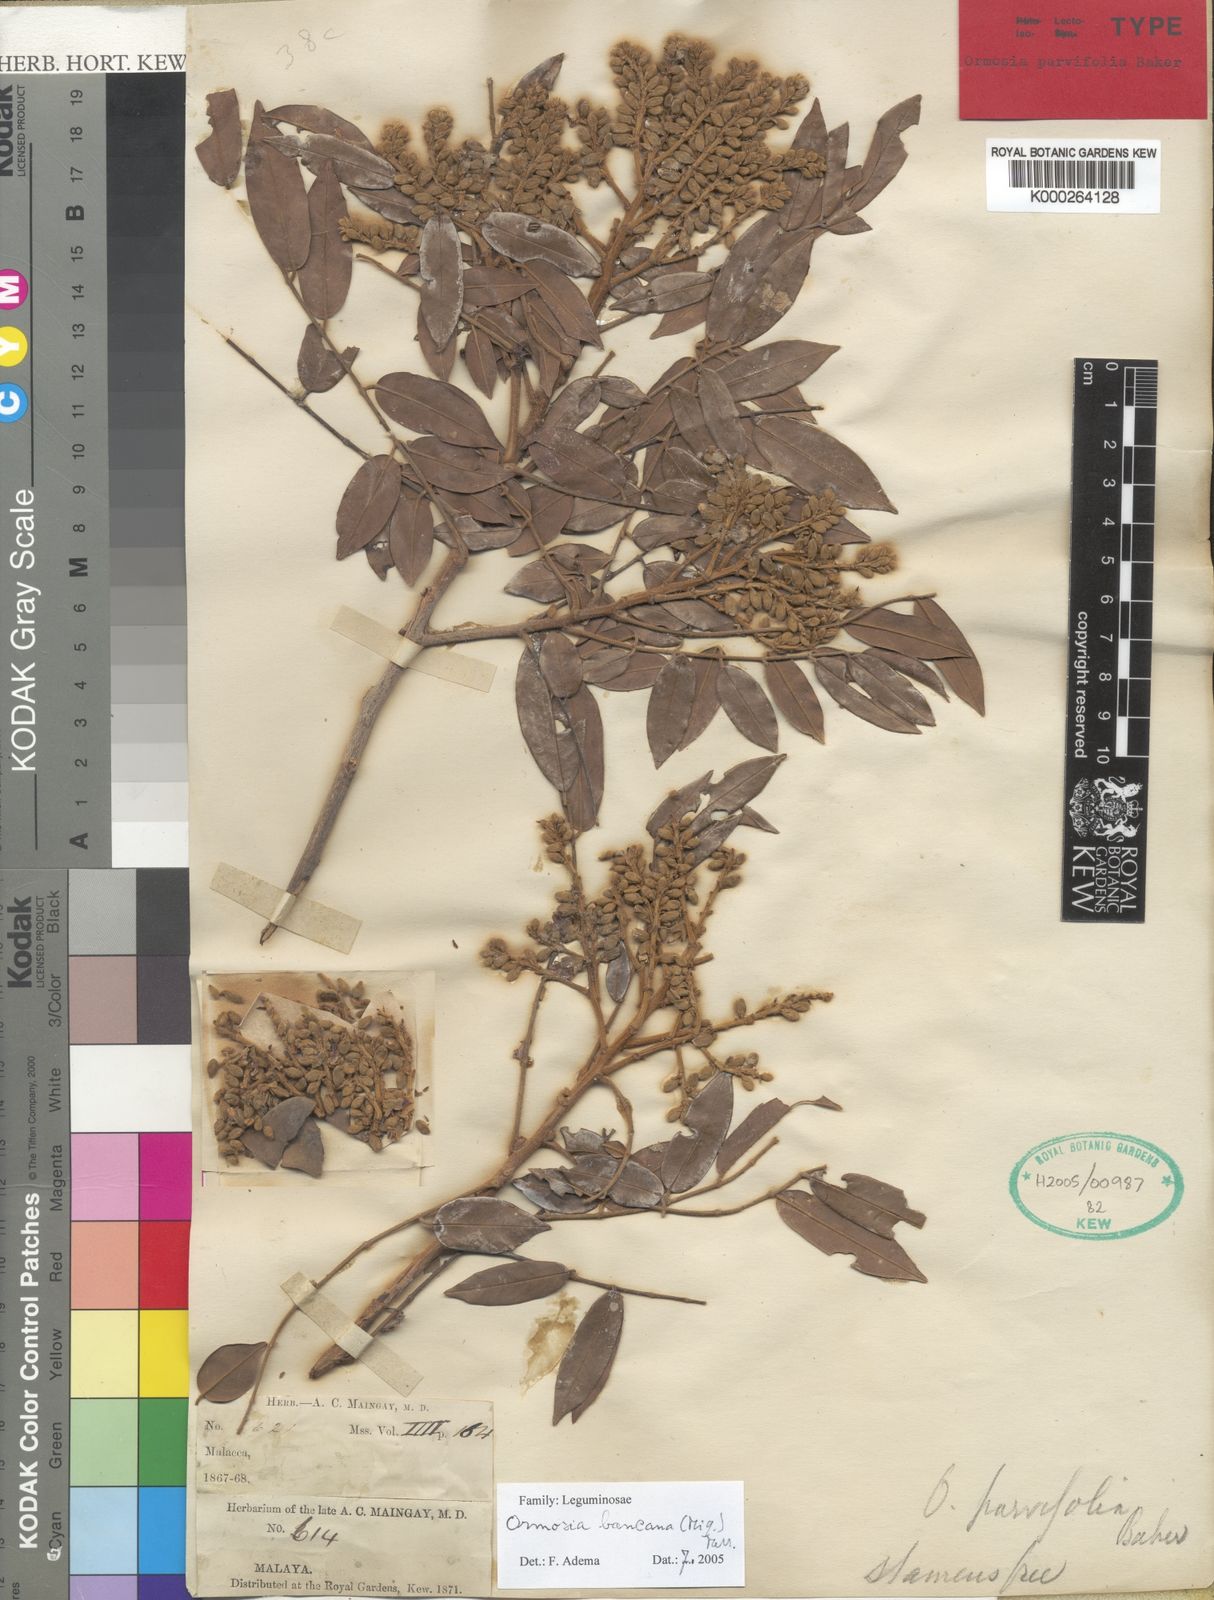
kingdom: Plantae
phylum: Tracheophyta
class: Magnoliopsida
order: Fabales
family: Fabaceae
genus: Ormosia
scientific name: Ormosia bancana
